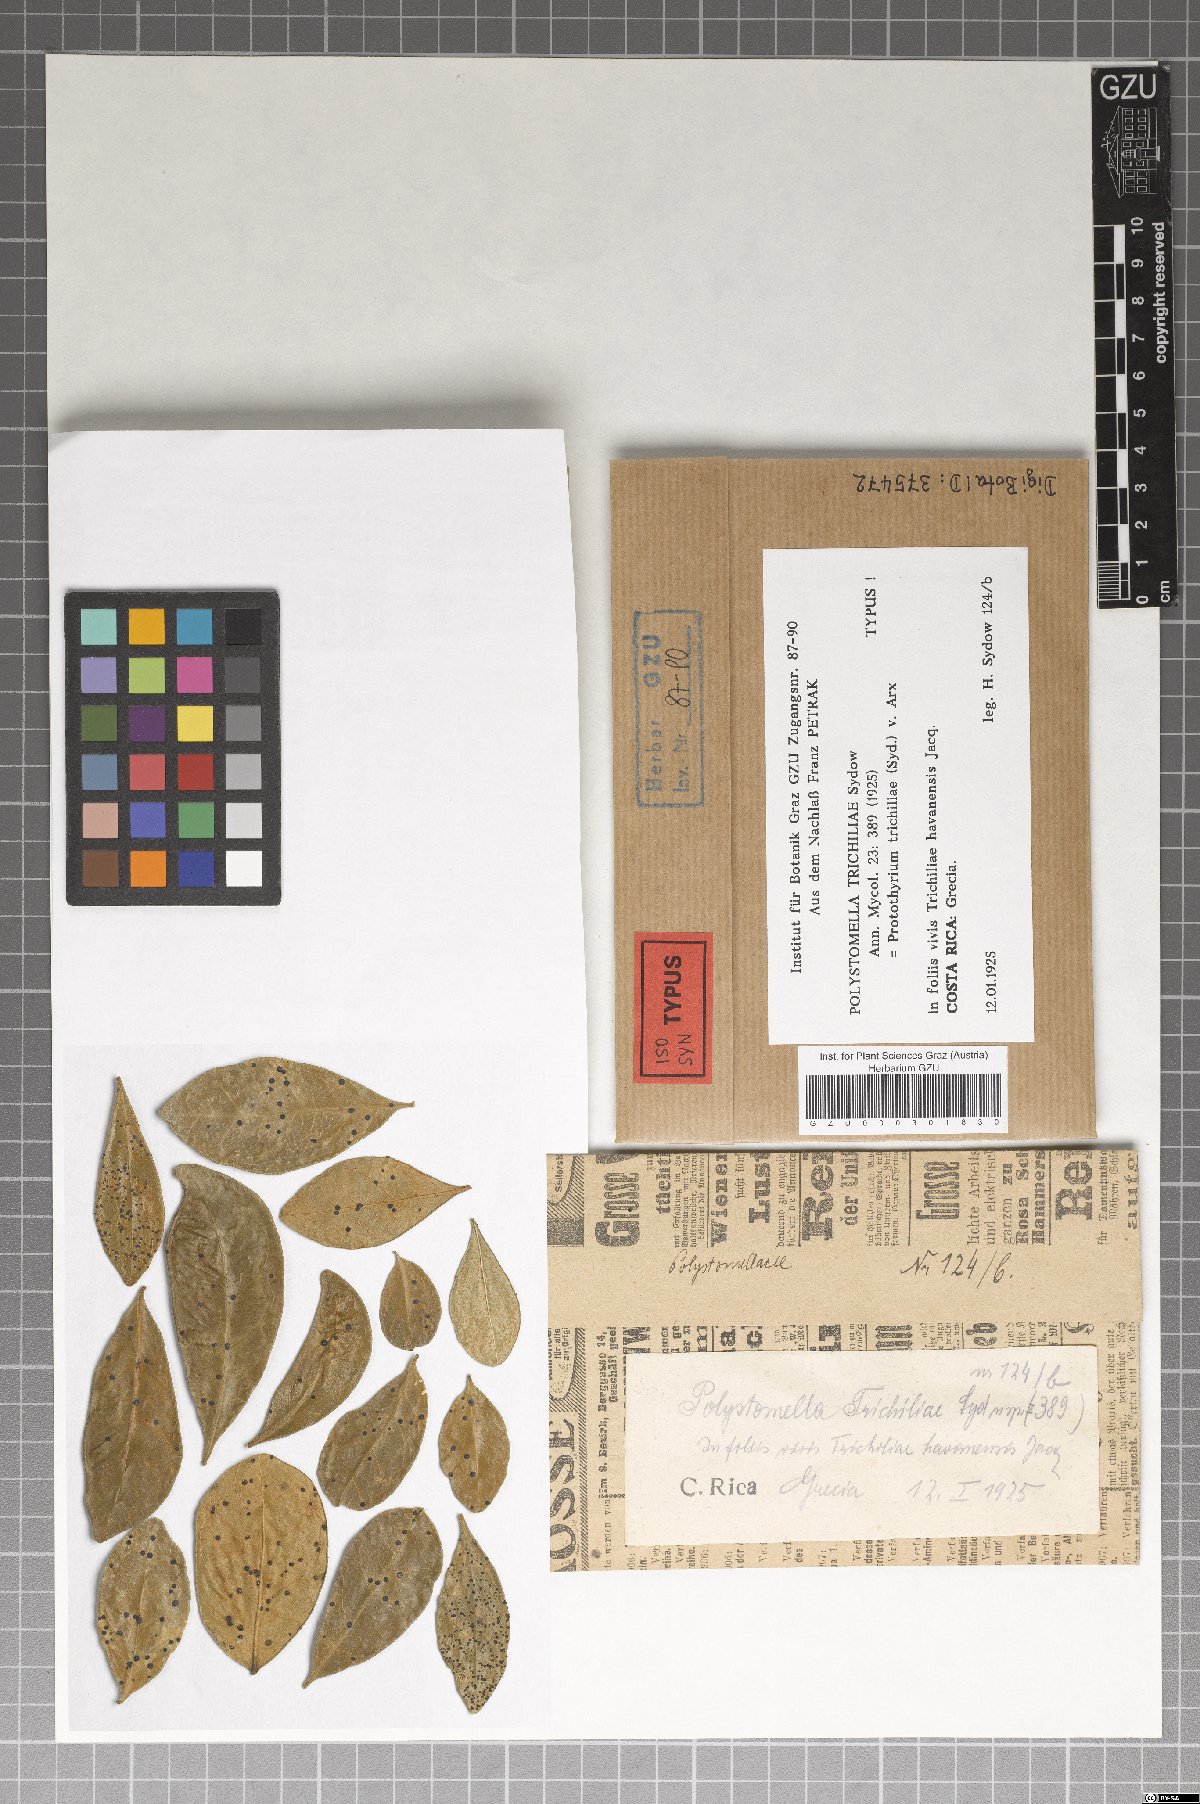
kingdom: Fungi
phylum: Ascomycota
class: Dothideomycetes
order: Asterinales
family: Parmulariaceae
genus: Protothyrium
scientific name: Protothyrium trichiliae
